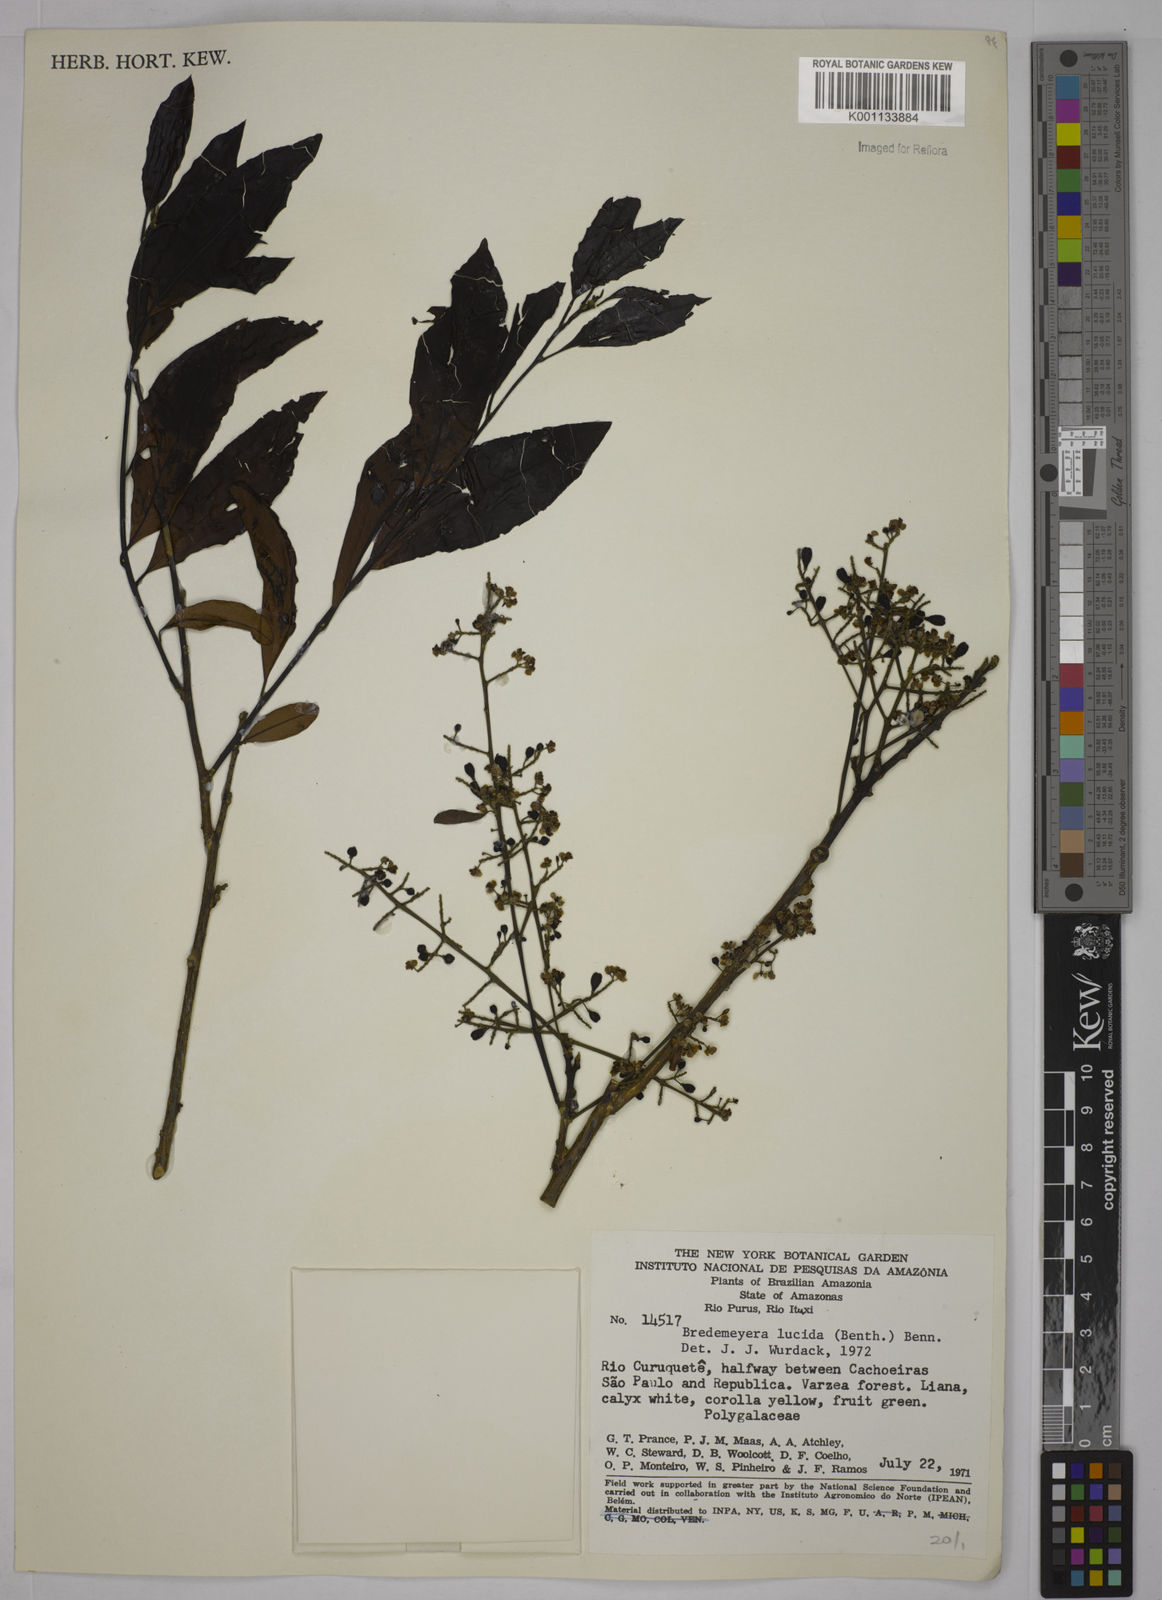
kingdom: Plantae
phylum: Tracheophyta
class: Magnoliopsida
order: Fabales
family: Polygalaceae
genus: Bredemeyera
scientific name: Bredemeyera lucida
